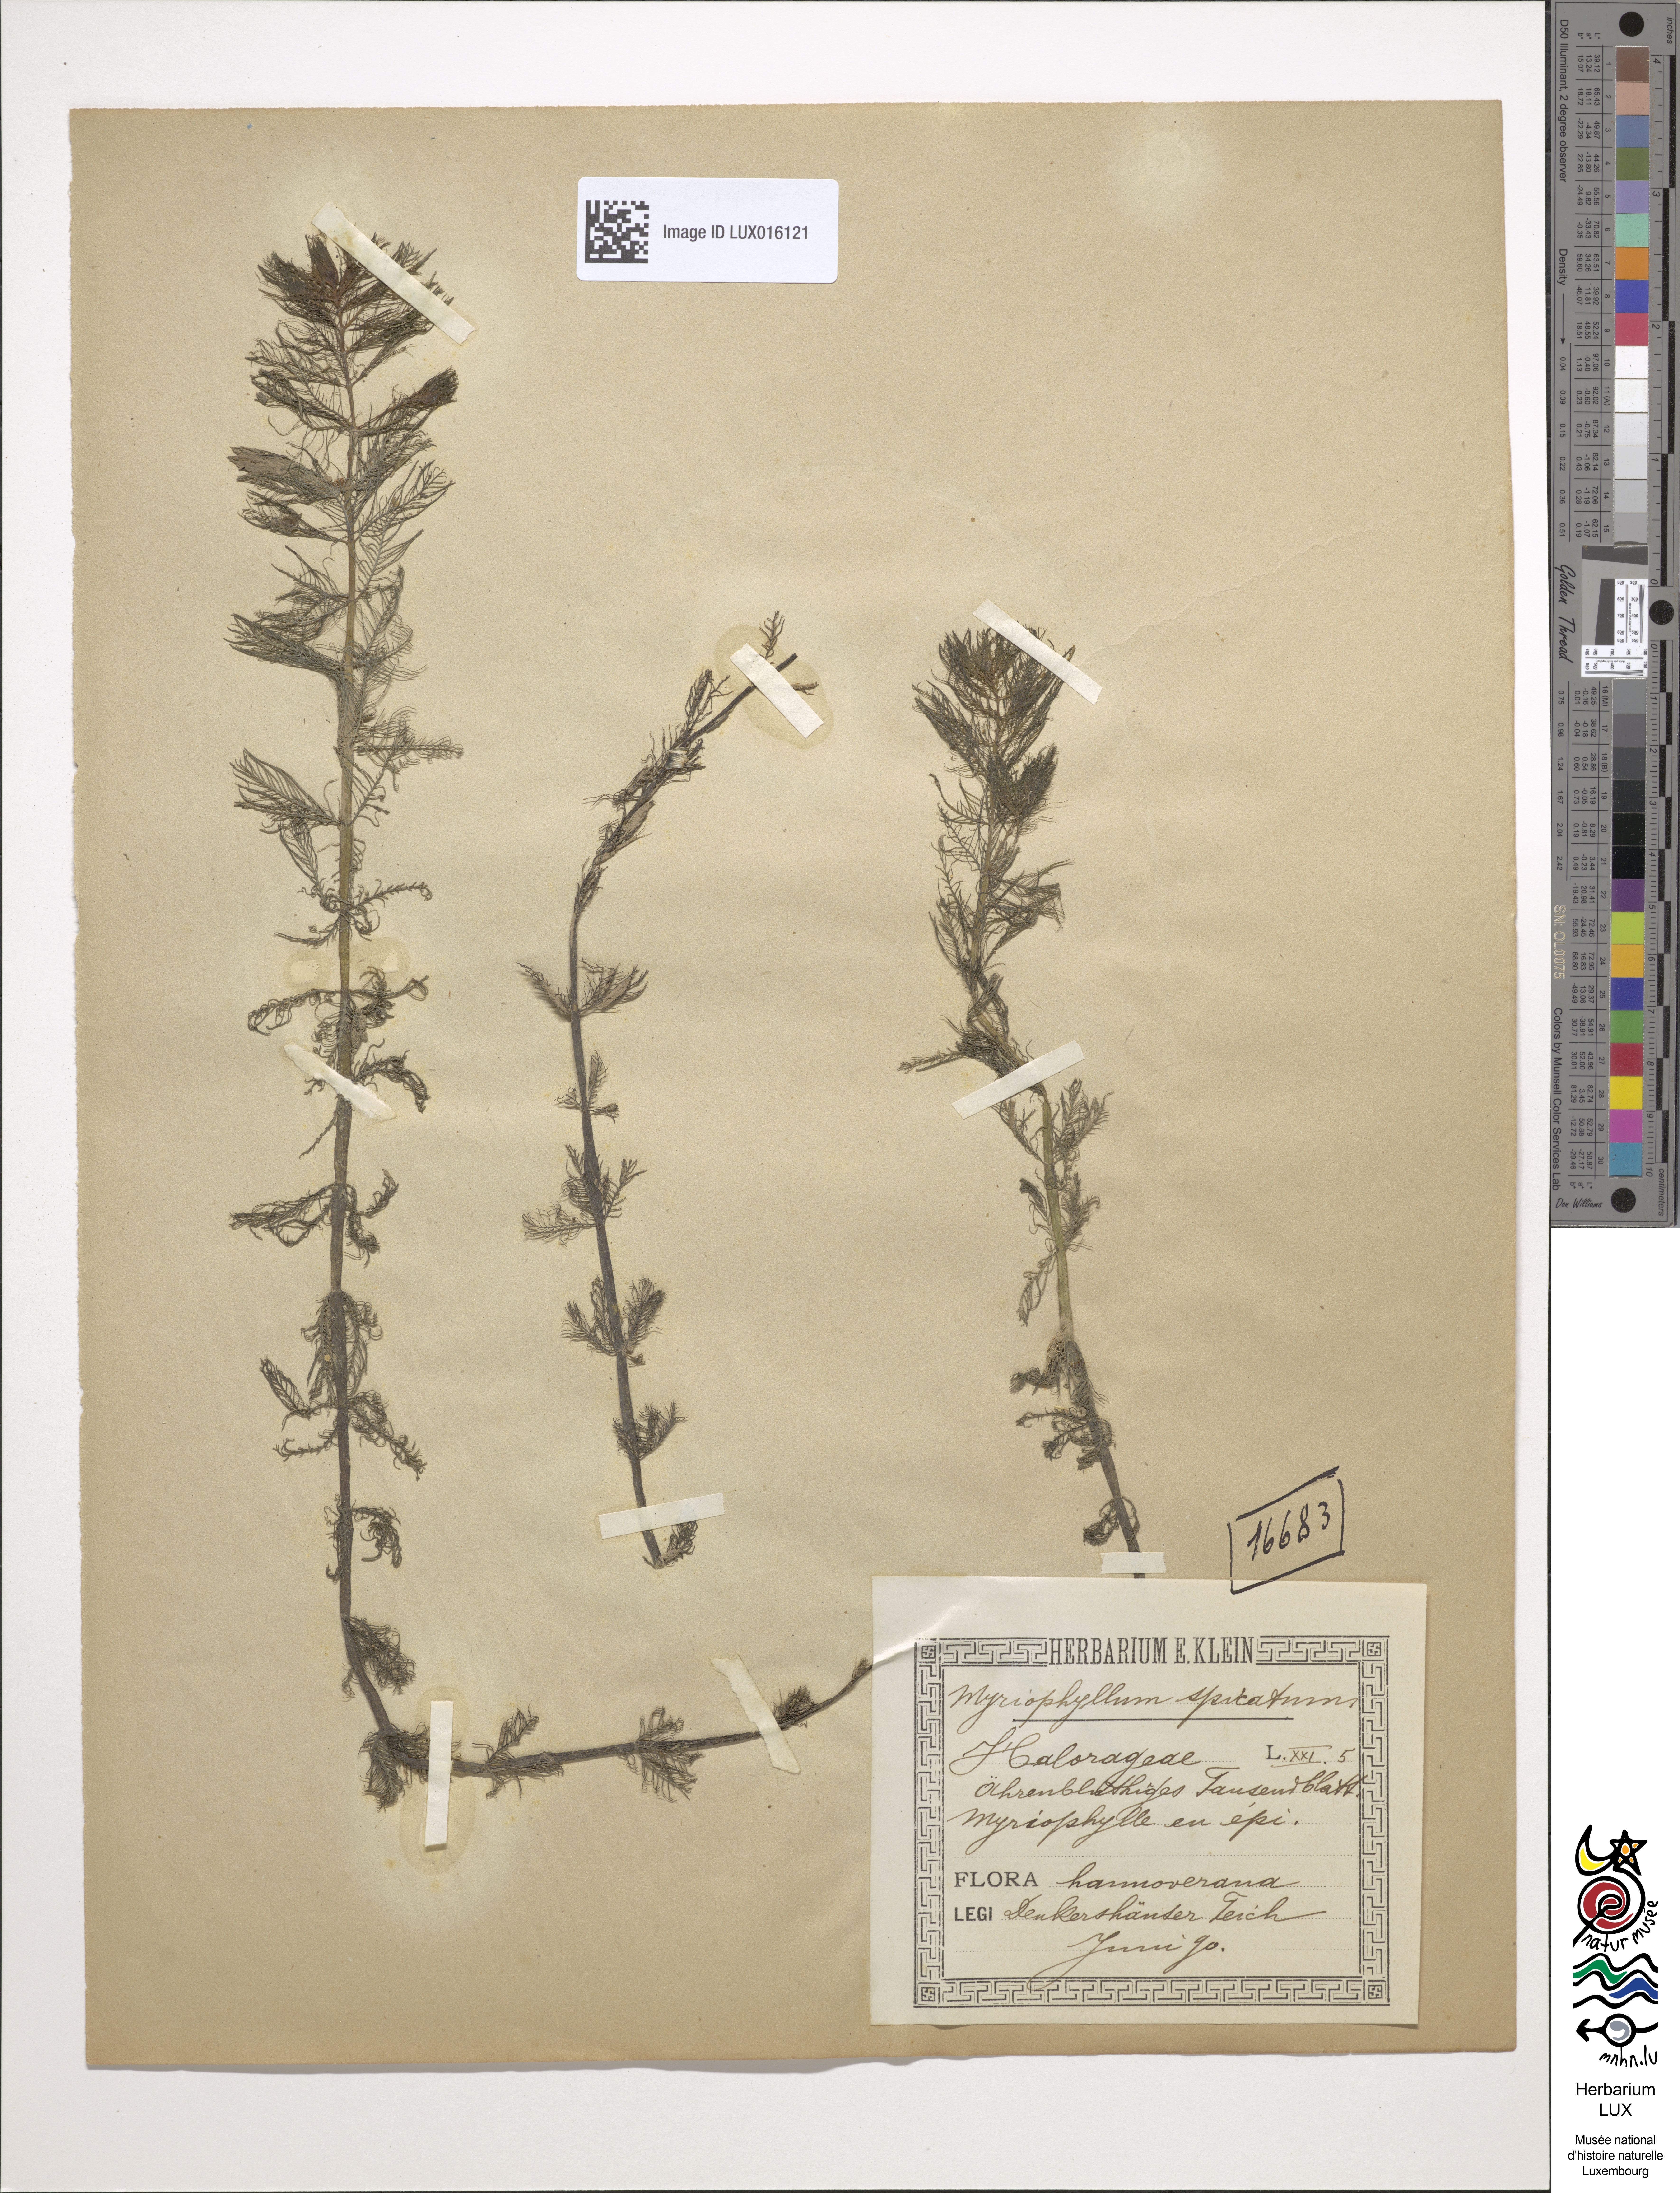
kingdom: Plantae
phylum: Tracheophyta
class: Magnoliopsida
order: Saxifragales
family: Haloragaceae
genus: Myriophyllum
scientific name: Myriophyllum spicatum
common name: Spiked water-milfoil
